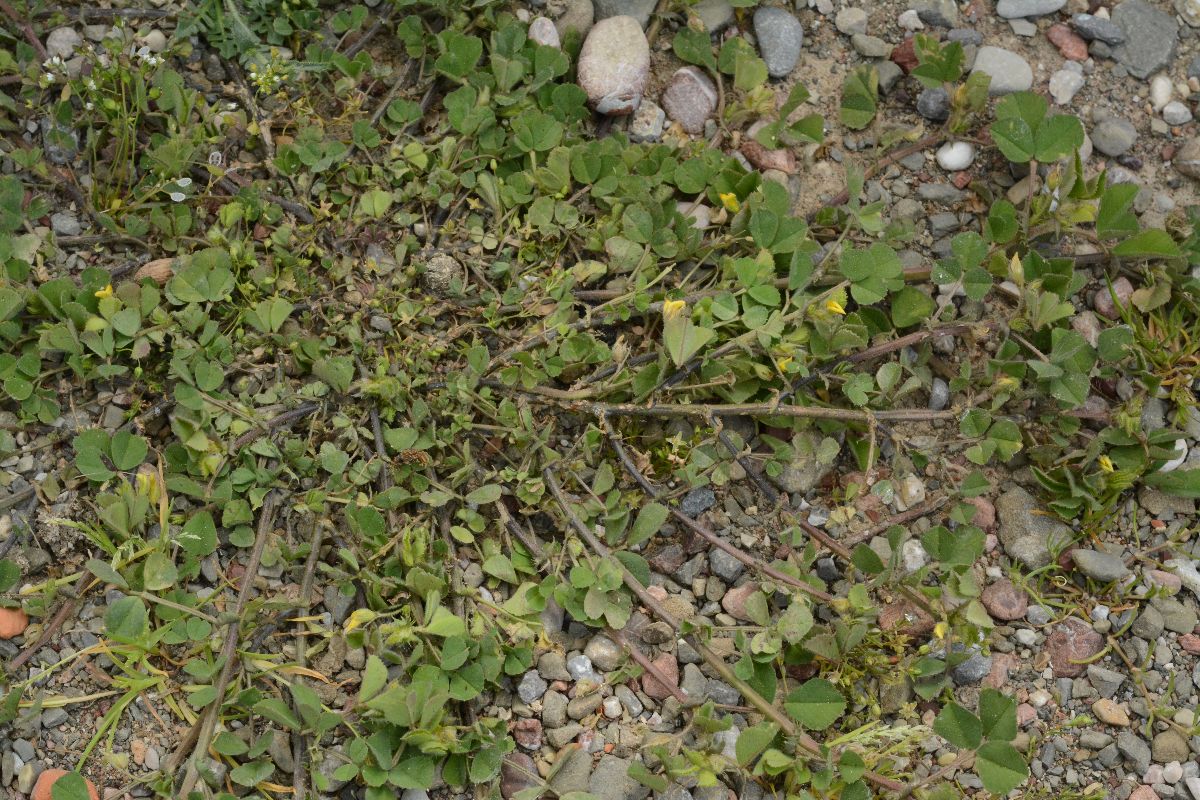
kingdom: Plantae
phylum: Tracheophyta
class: Magnoliopsida
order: Geraniales
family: Geraniaceae
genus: Erodium
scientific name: Erodium cicutarium
